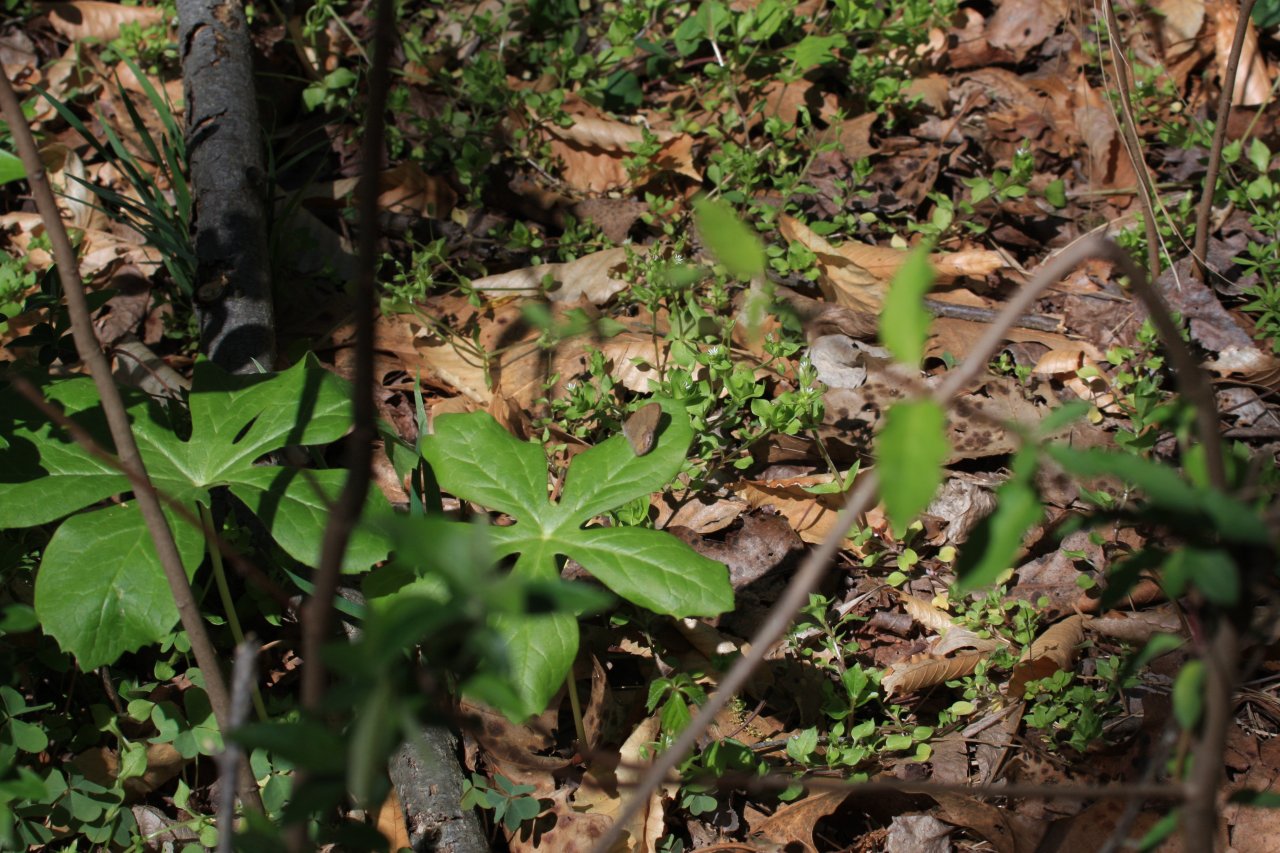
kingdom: Animalia
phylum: Arthropoda
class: Insecta
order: Lepidoptera
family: Nymphalidae
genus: Euptychia
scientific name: Euptychia cornelius
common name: Gemmed Satyr
